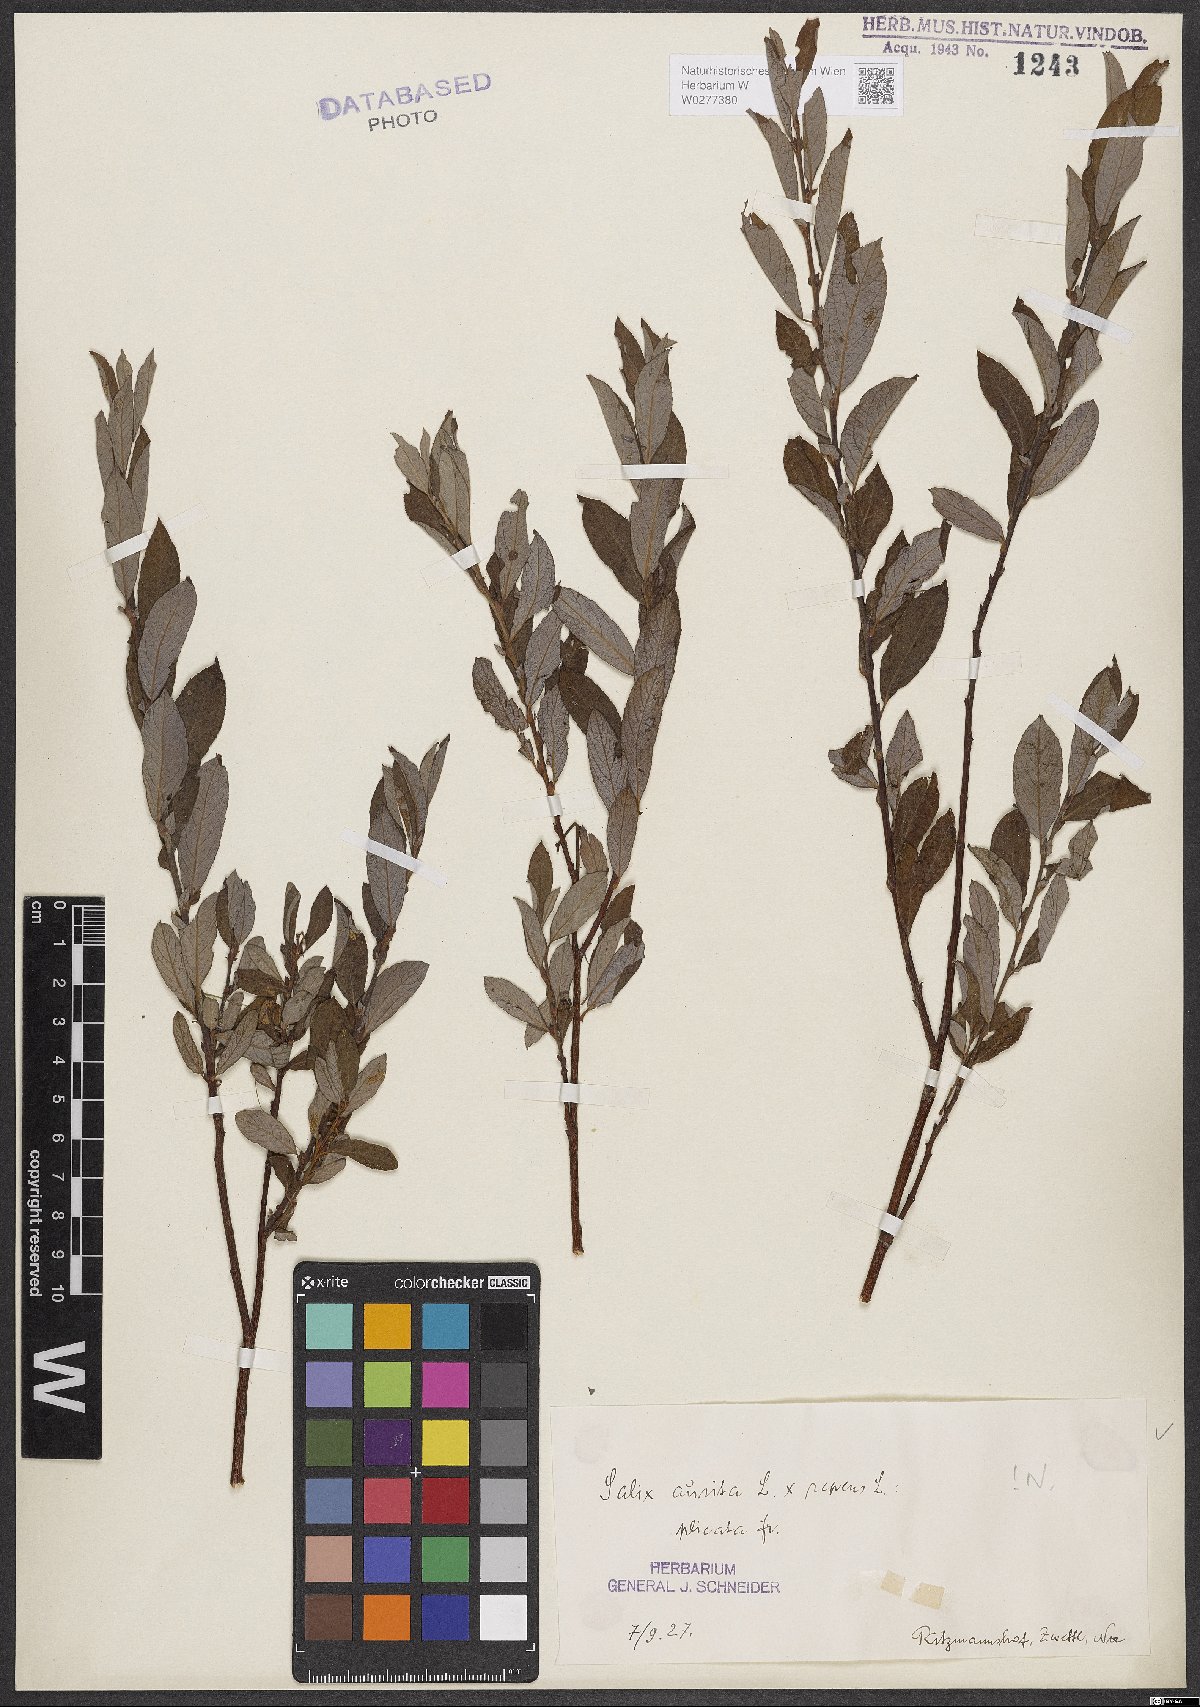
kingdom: Plantae
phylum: Tracheophyta
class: Magnoliopsida
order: Malpighiales
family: Salicaceae
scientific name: Salicaceae
